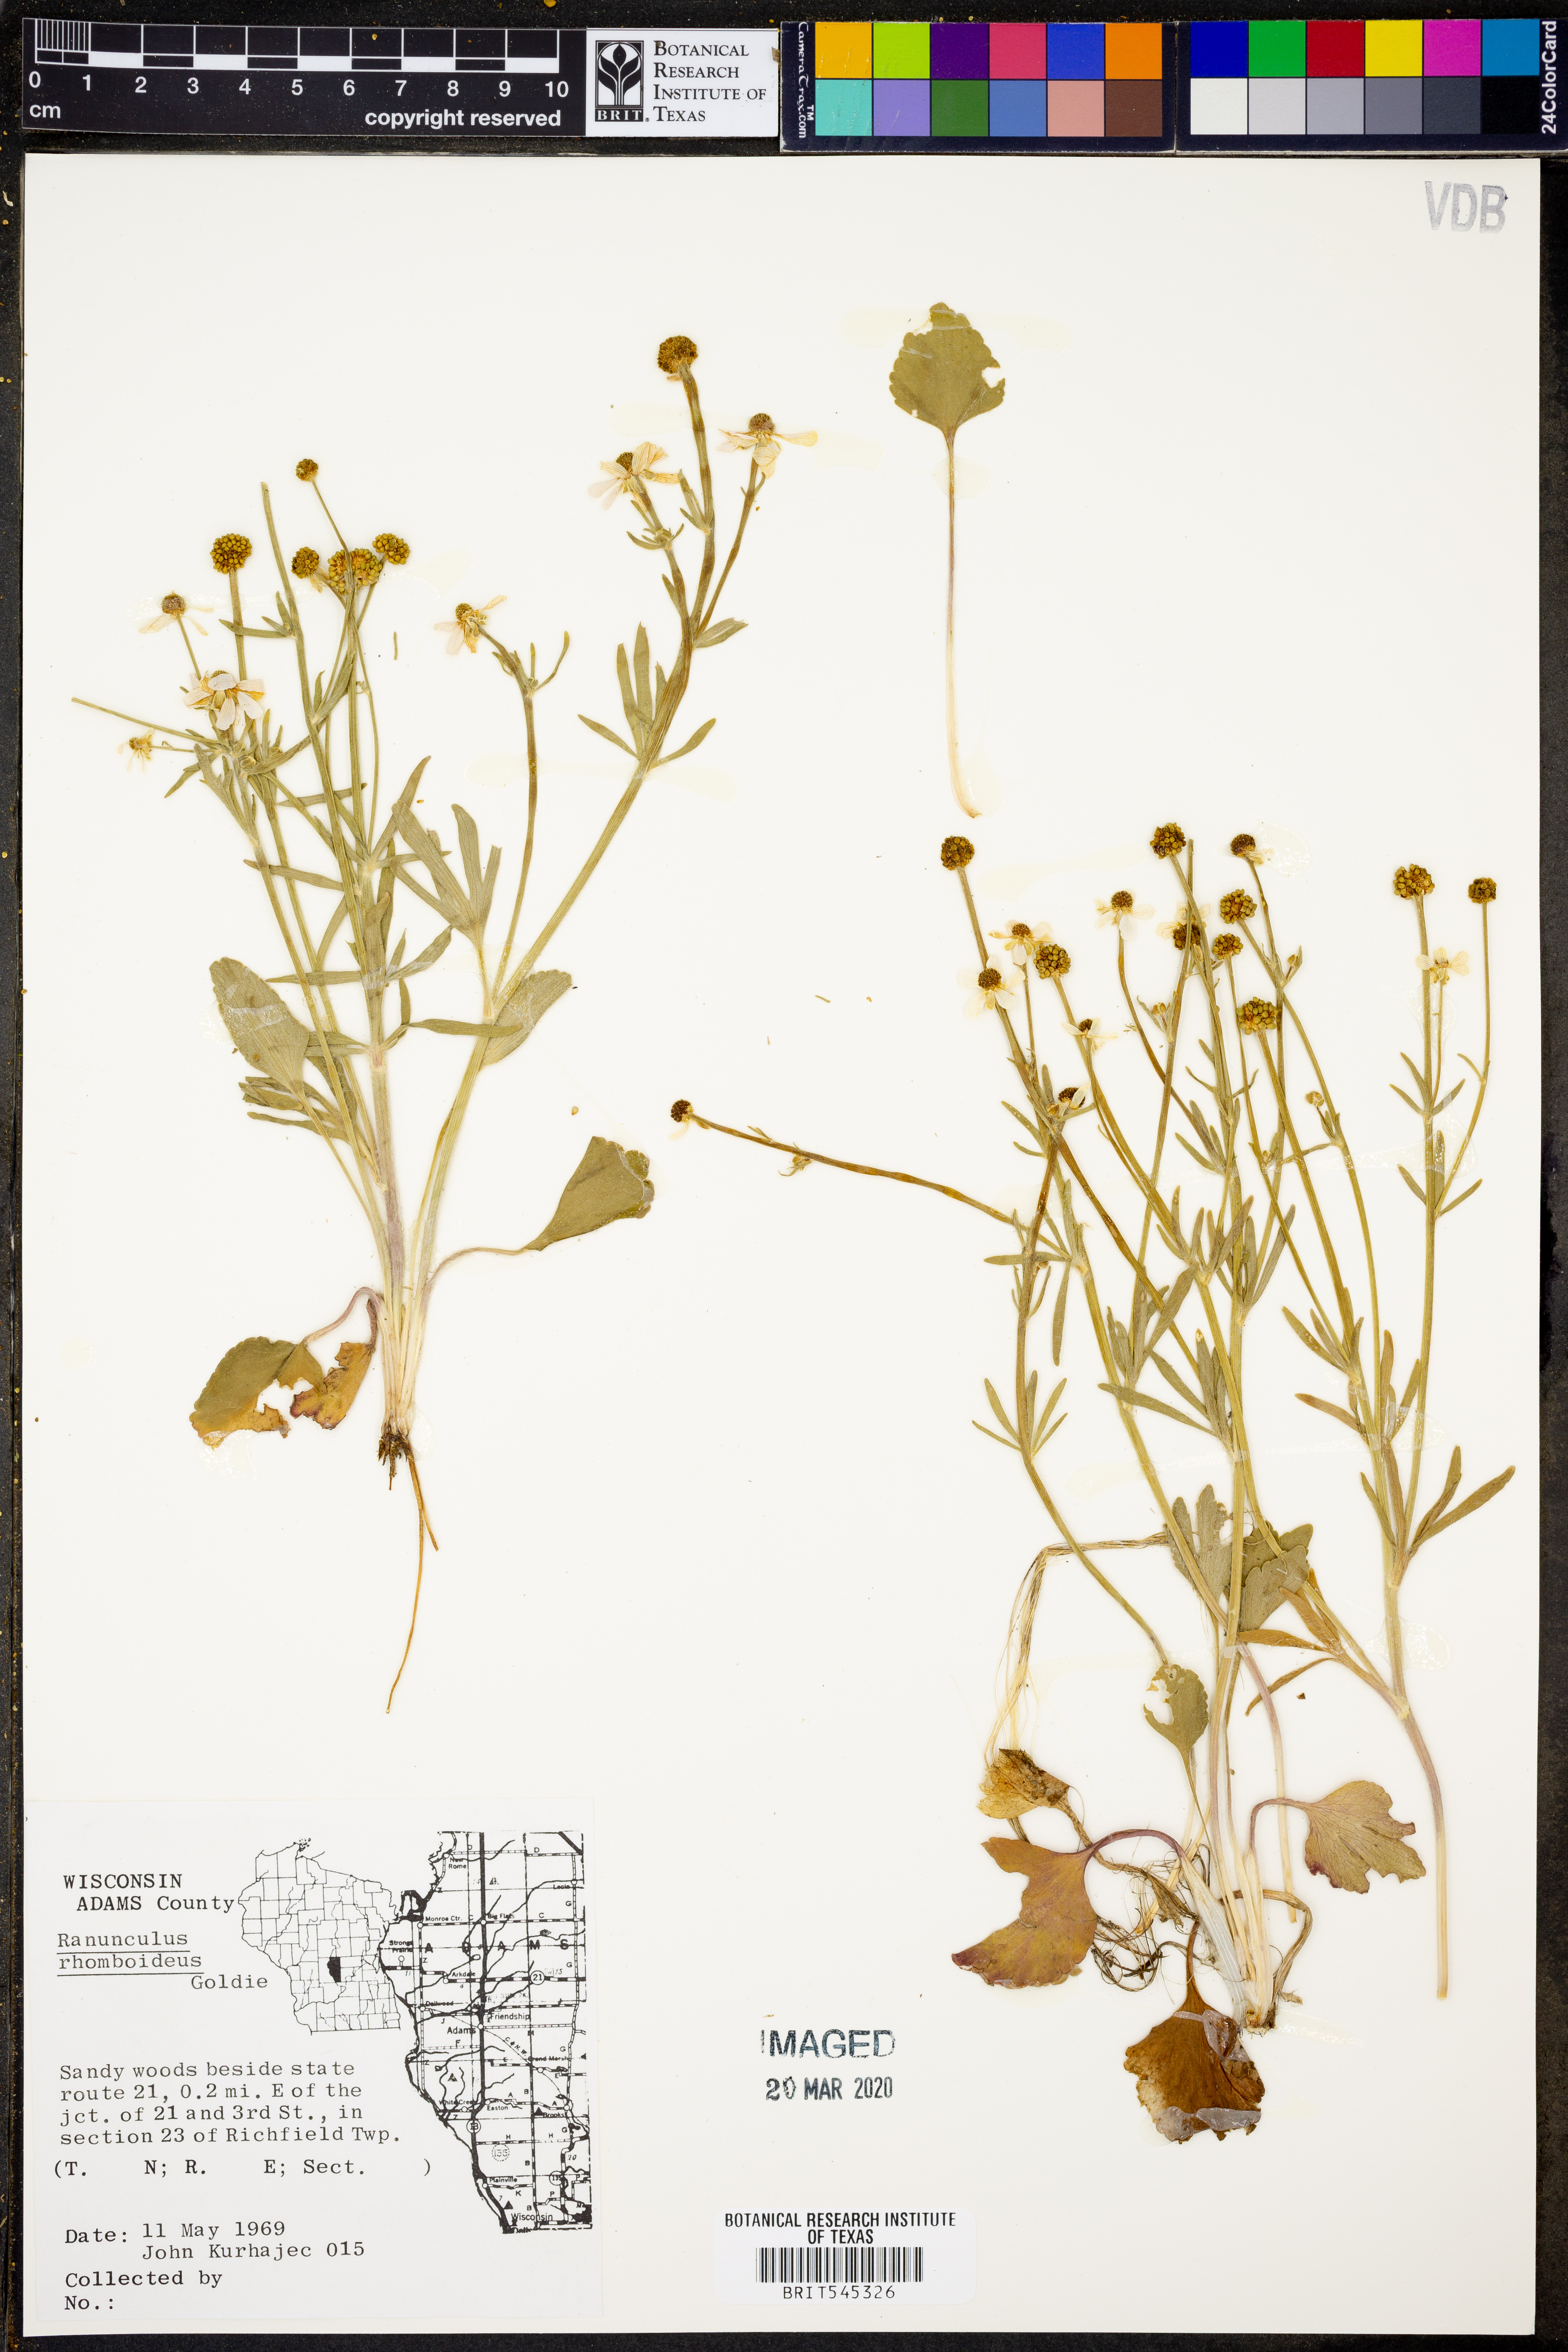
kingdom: Plantae
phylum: Tracheophyta
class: Magnoliopsida
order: Ranunculales
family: Ranunculaceae
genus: Ranunculus
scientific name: Ranunculus rhomboideus
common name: Prairie buttercup
